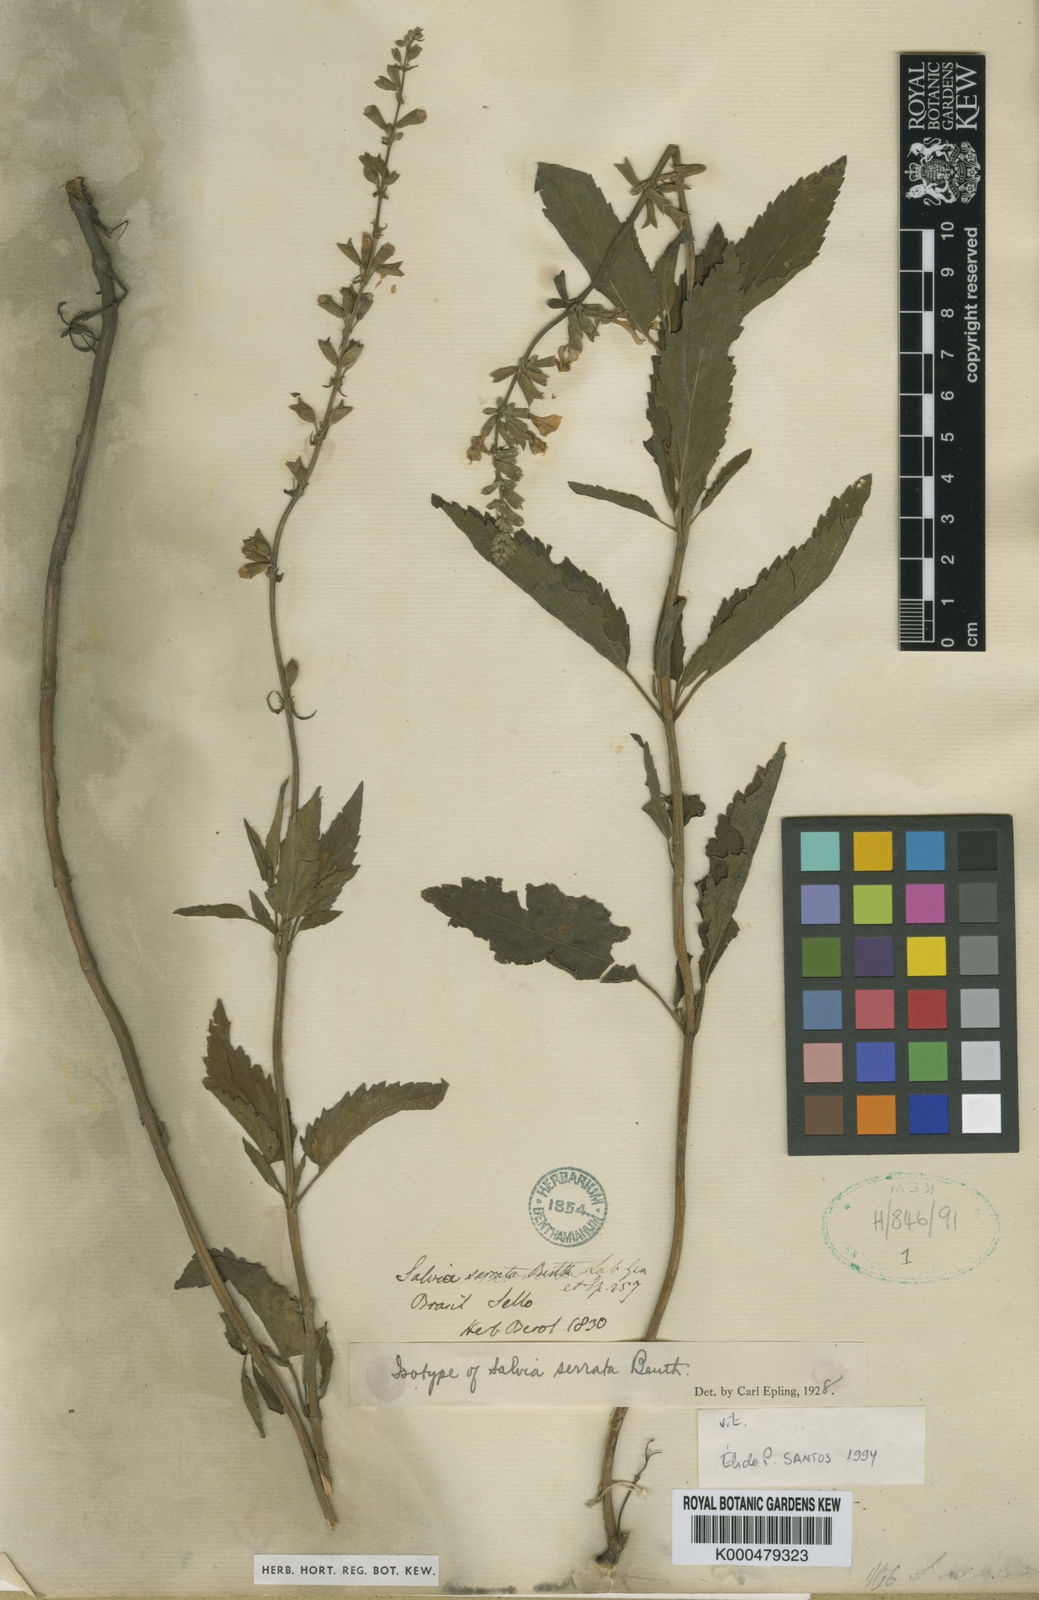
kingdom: Plantae
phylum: Tracheophyta
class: Magnoliopsida
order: Lamiales
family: Lamiaceae
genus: Salvia
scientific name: Salvia pallida
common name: Pale sage
